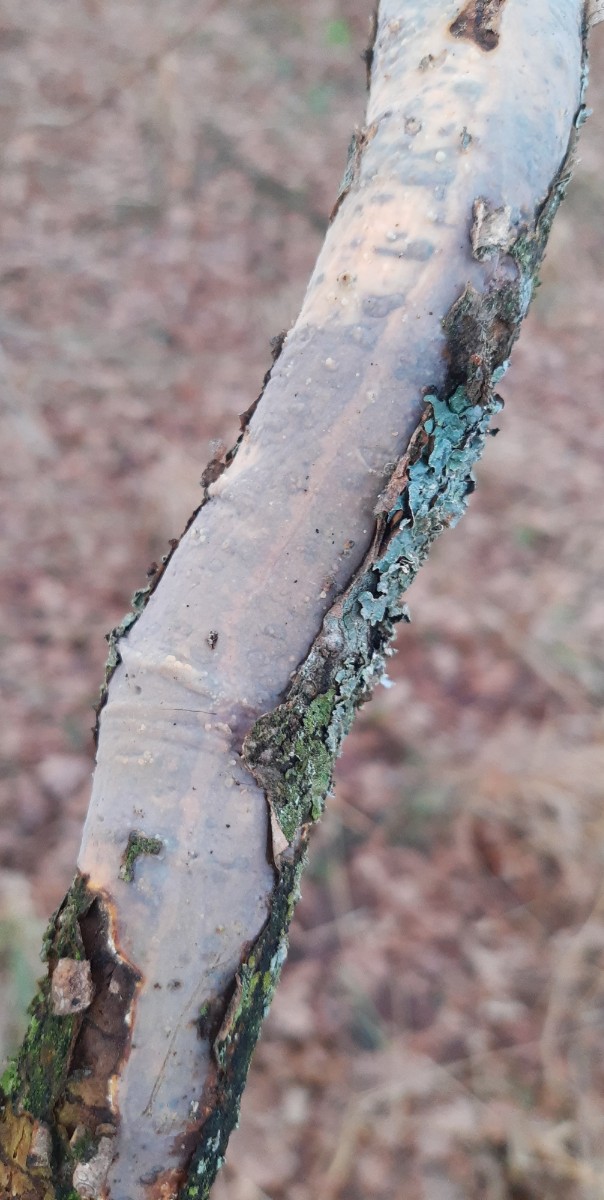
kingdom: Fungi
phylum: Basidiomycota
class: Agaricomycetes
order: Corticiales
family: Vuilleminiaceae
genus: Vuilleminia
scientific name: Vuilleminia comedens
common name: almindelig barksprænger
